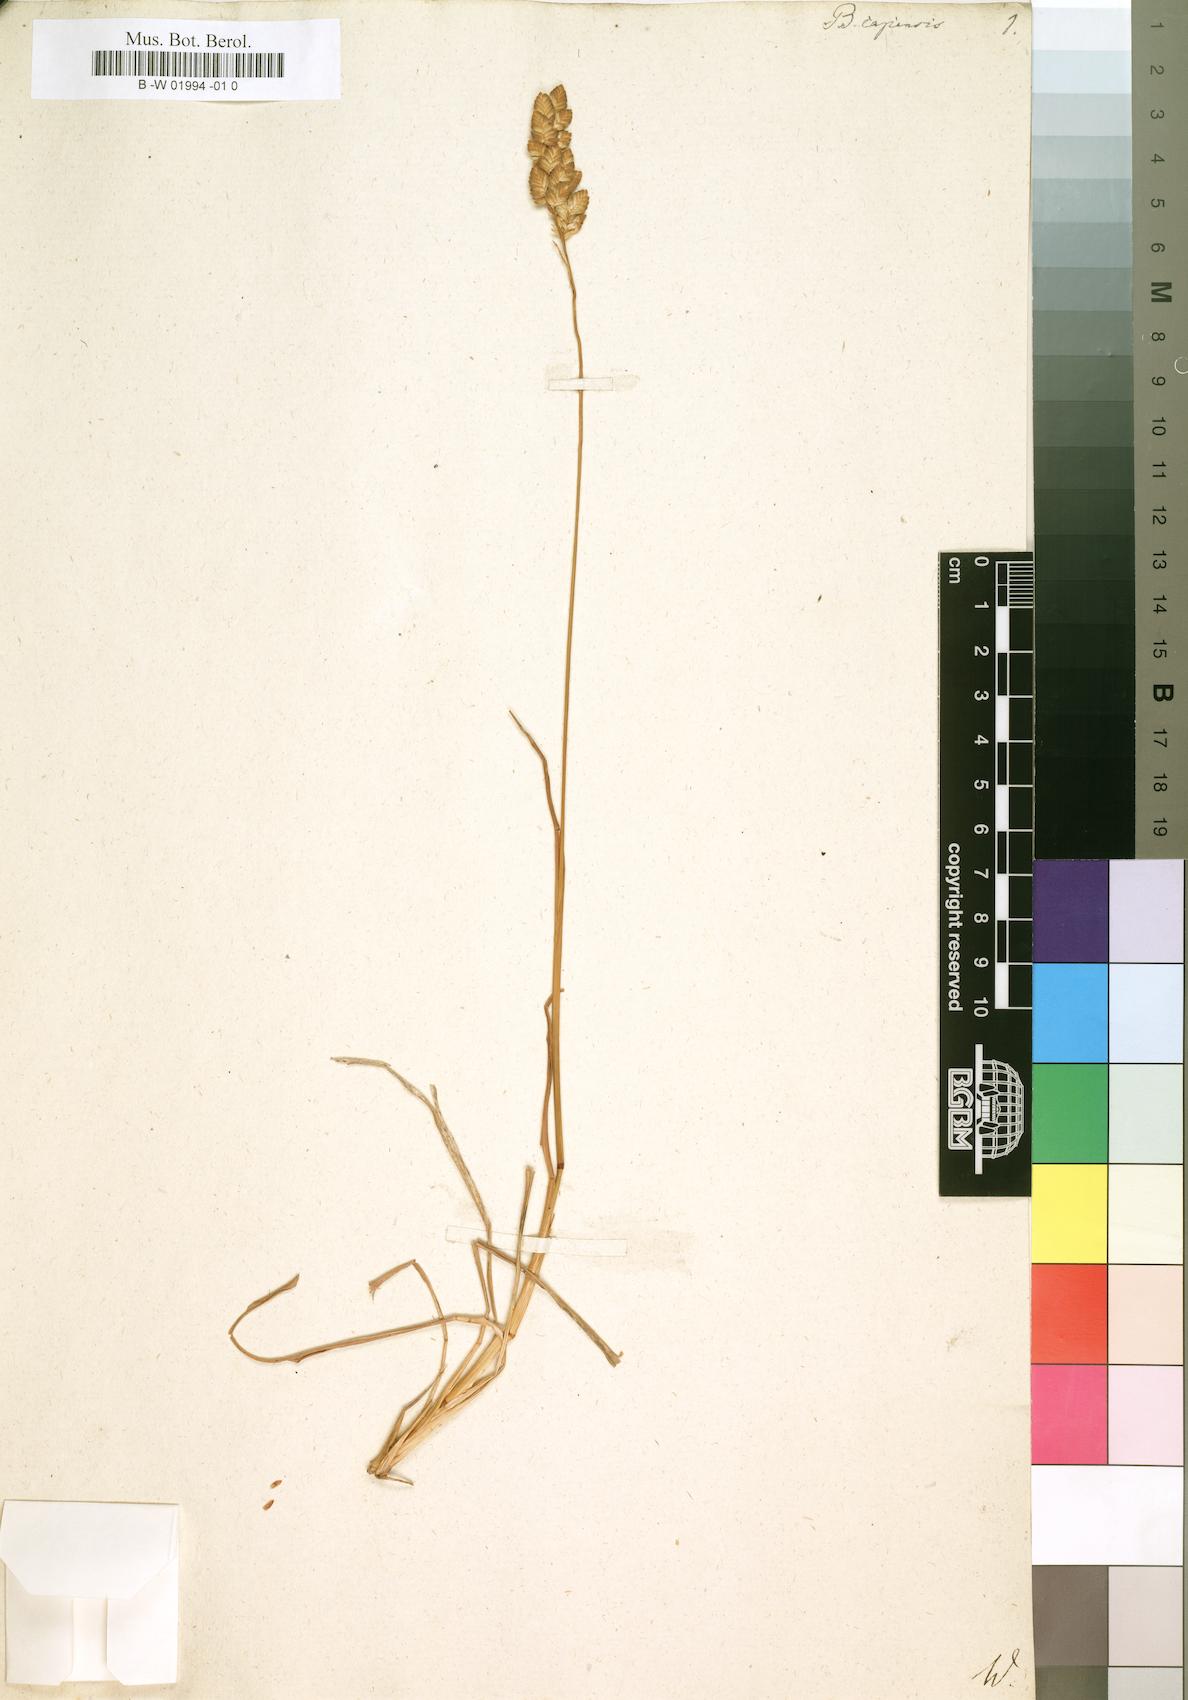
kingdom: Plantae
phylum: Tracheophyta
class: Liliopsida
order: Poales
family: Poaceae
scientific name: Poaceae
